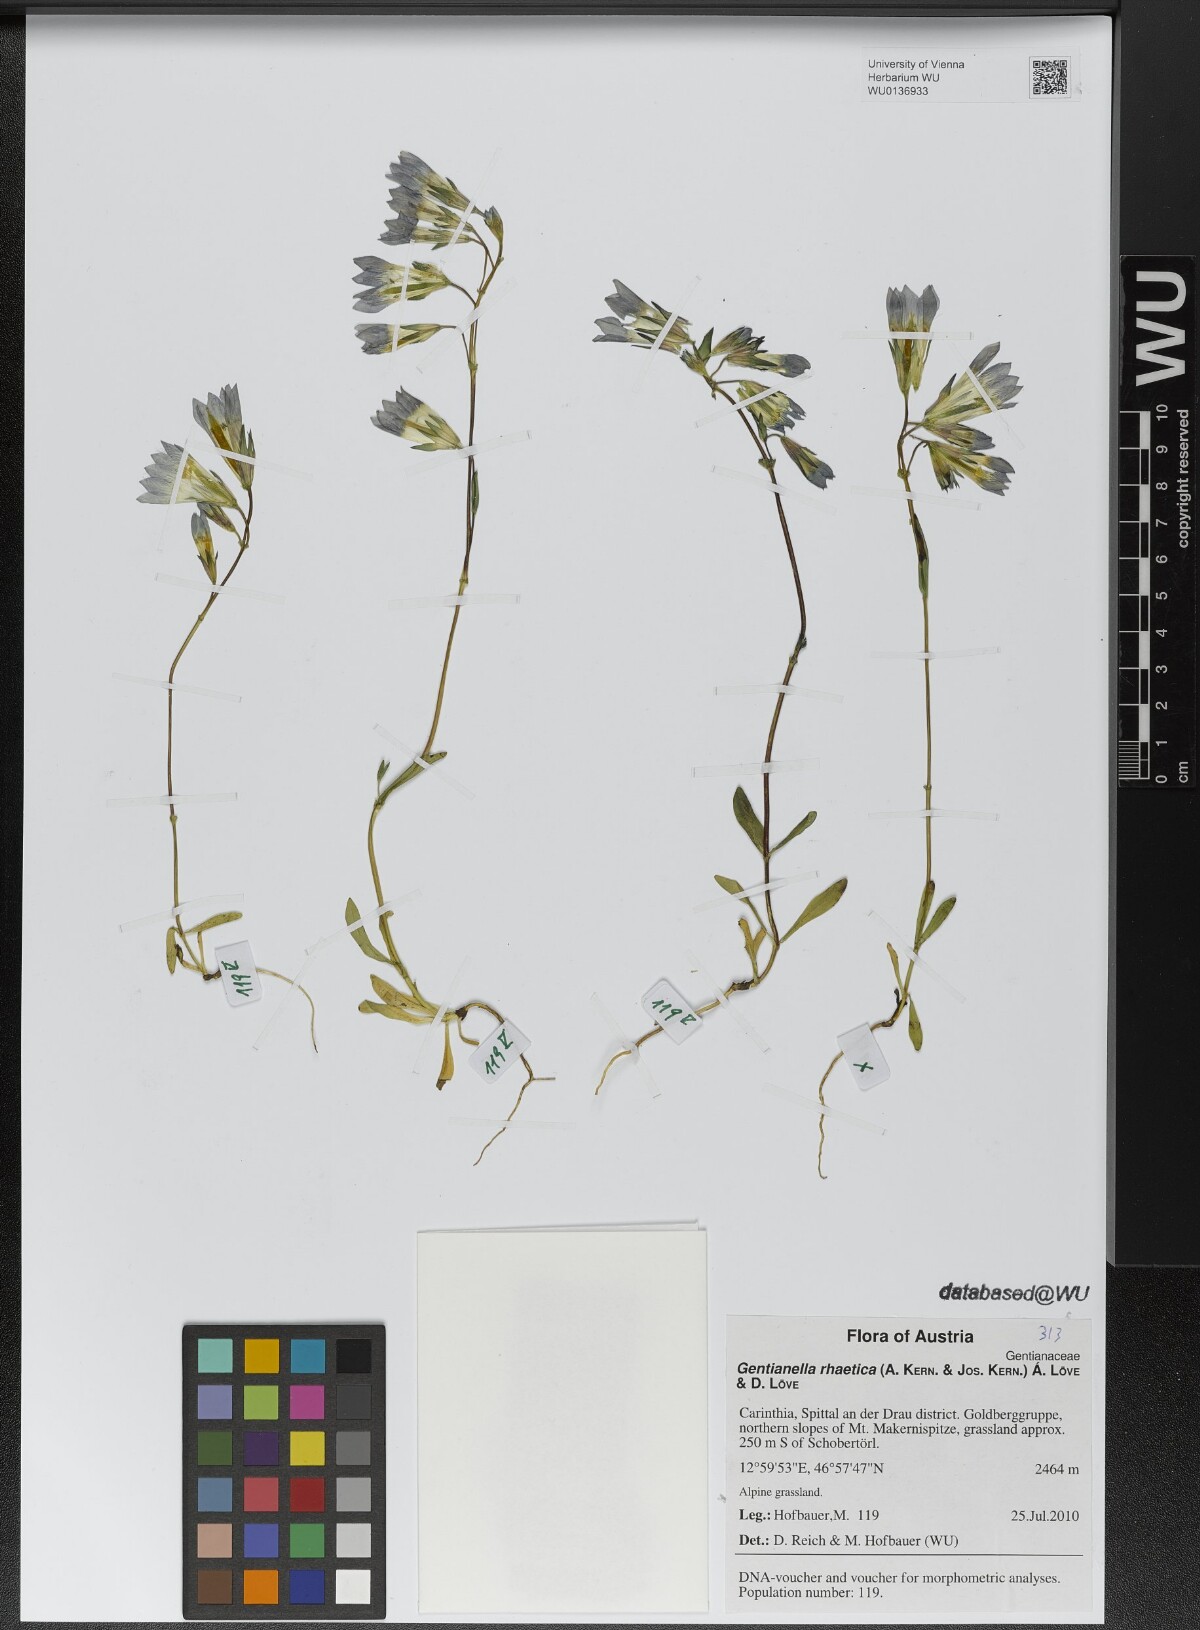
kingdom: Plantae
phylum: Tracheophyta
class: Magnoliopsida
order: Gentianales
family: Gentianaceae
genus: Gentianella
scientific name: Gentianella rhaetica
